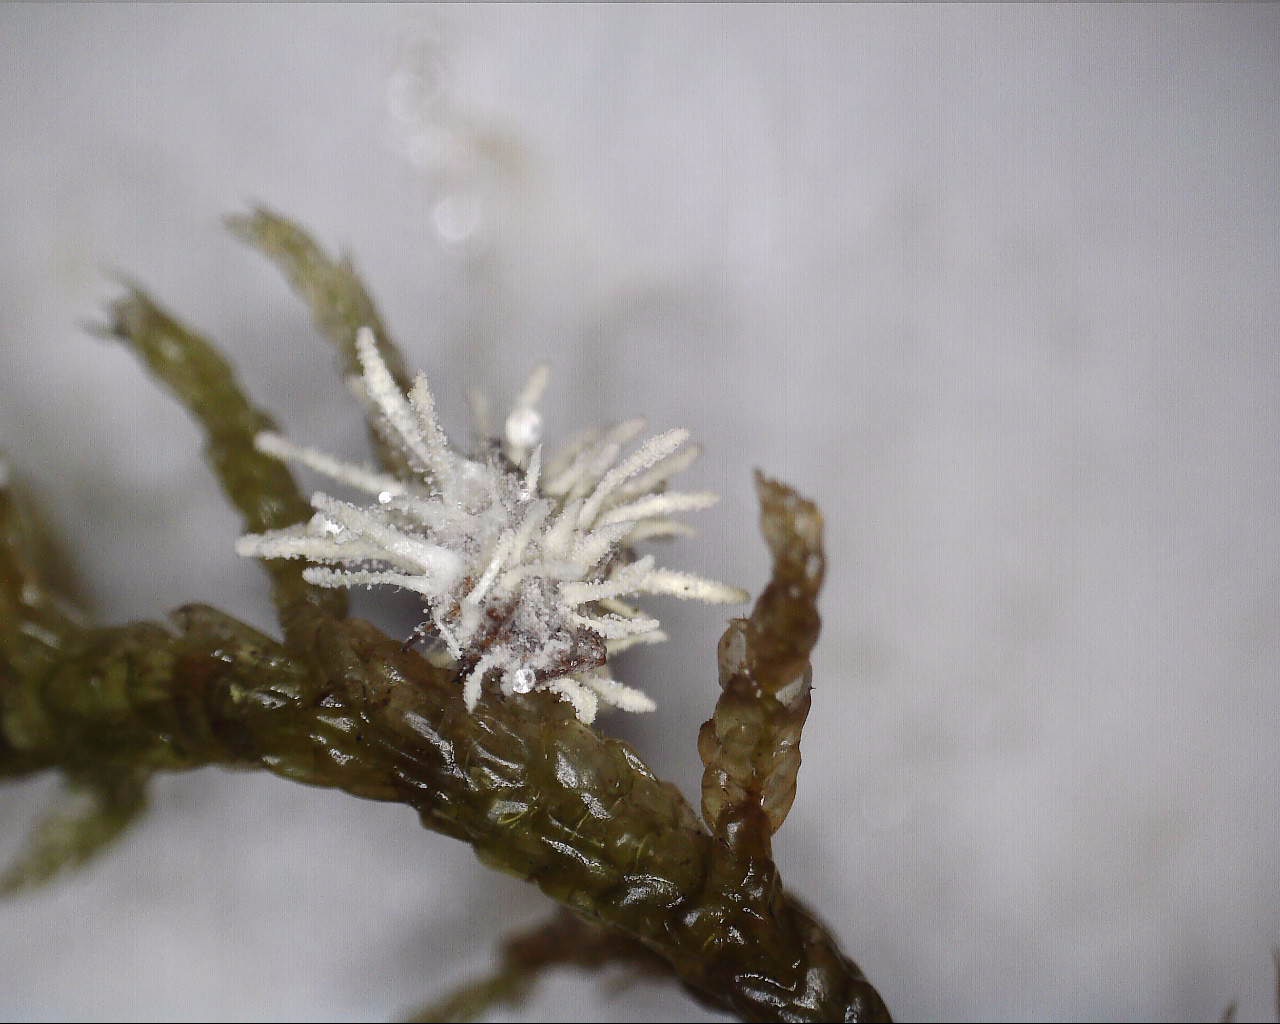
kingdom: Fungi
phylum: Ascomycota
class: Sordariomycetes
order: Hypocreales
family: Cordycipitaceae
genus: Gibellula
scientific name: Gibellula
